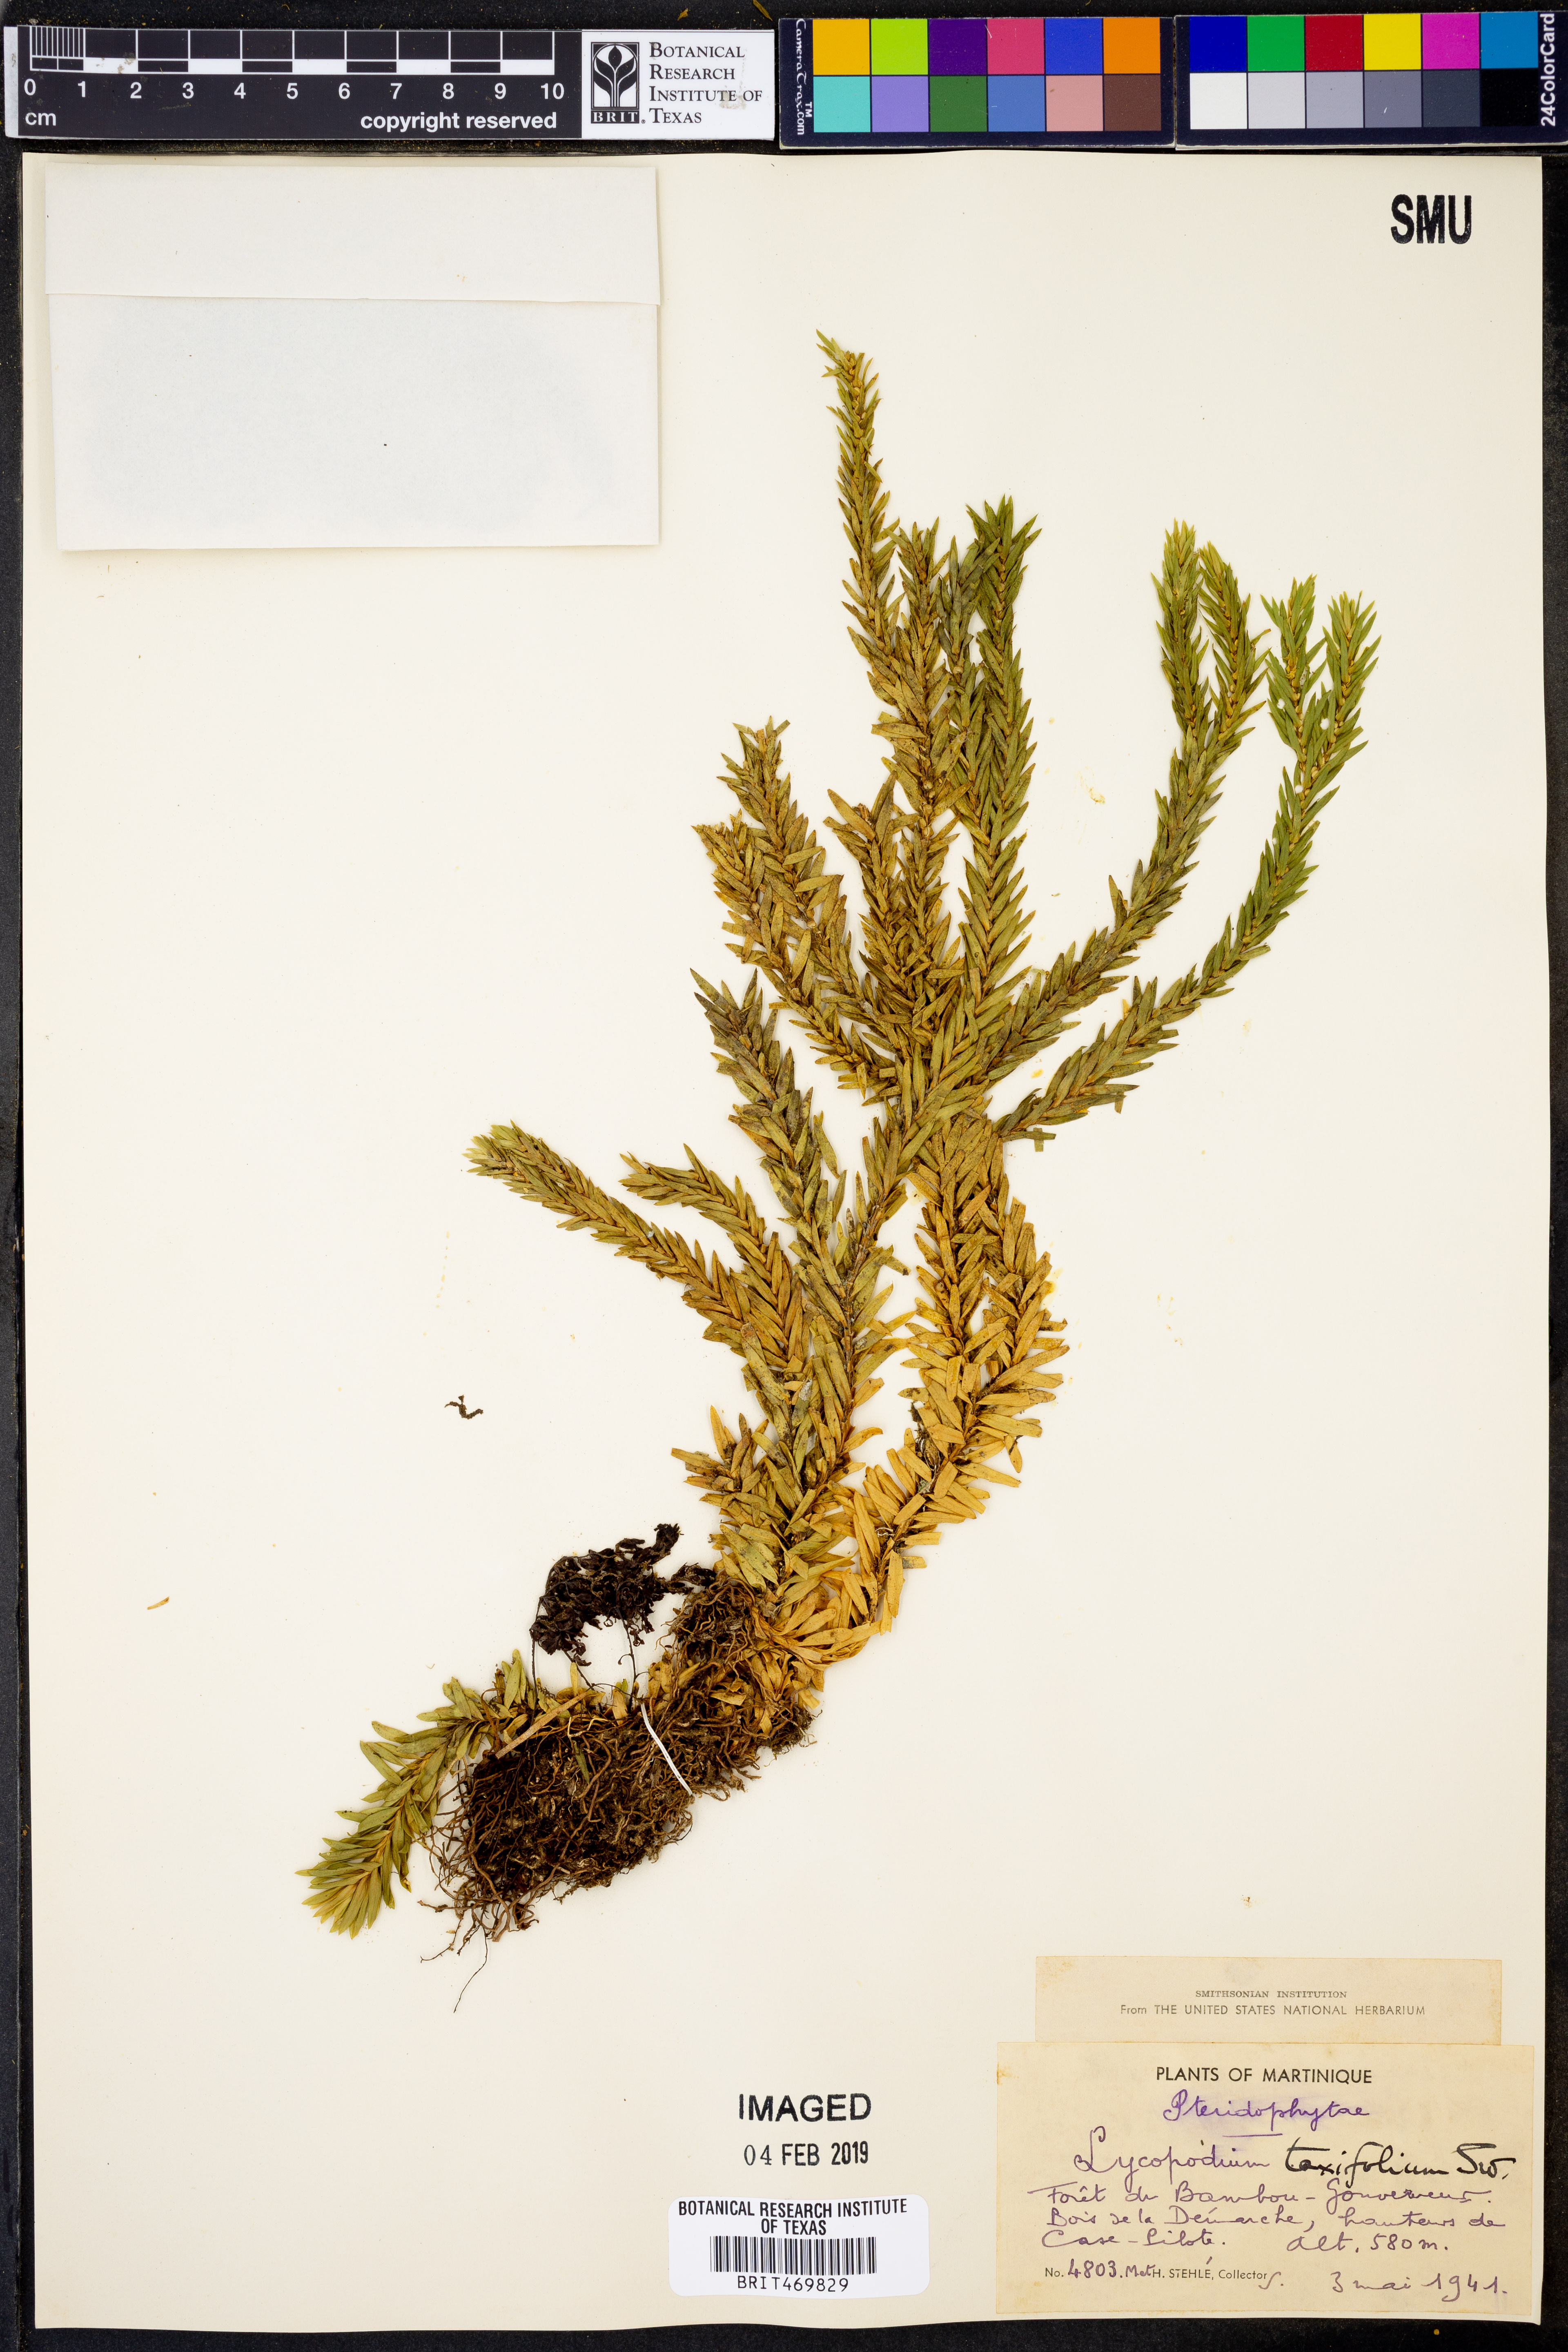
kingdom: Plantae
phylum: Tracheophyta
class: Lycopodiopsida
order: Lycopodiales
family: Lycopodiaceae
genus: Phlegmariurus
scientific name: Phlegmariurus taxifolius
